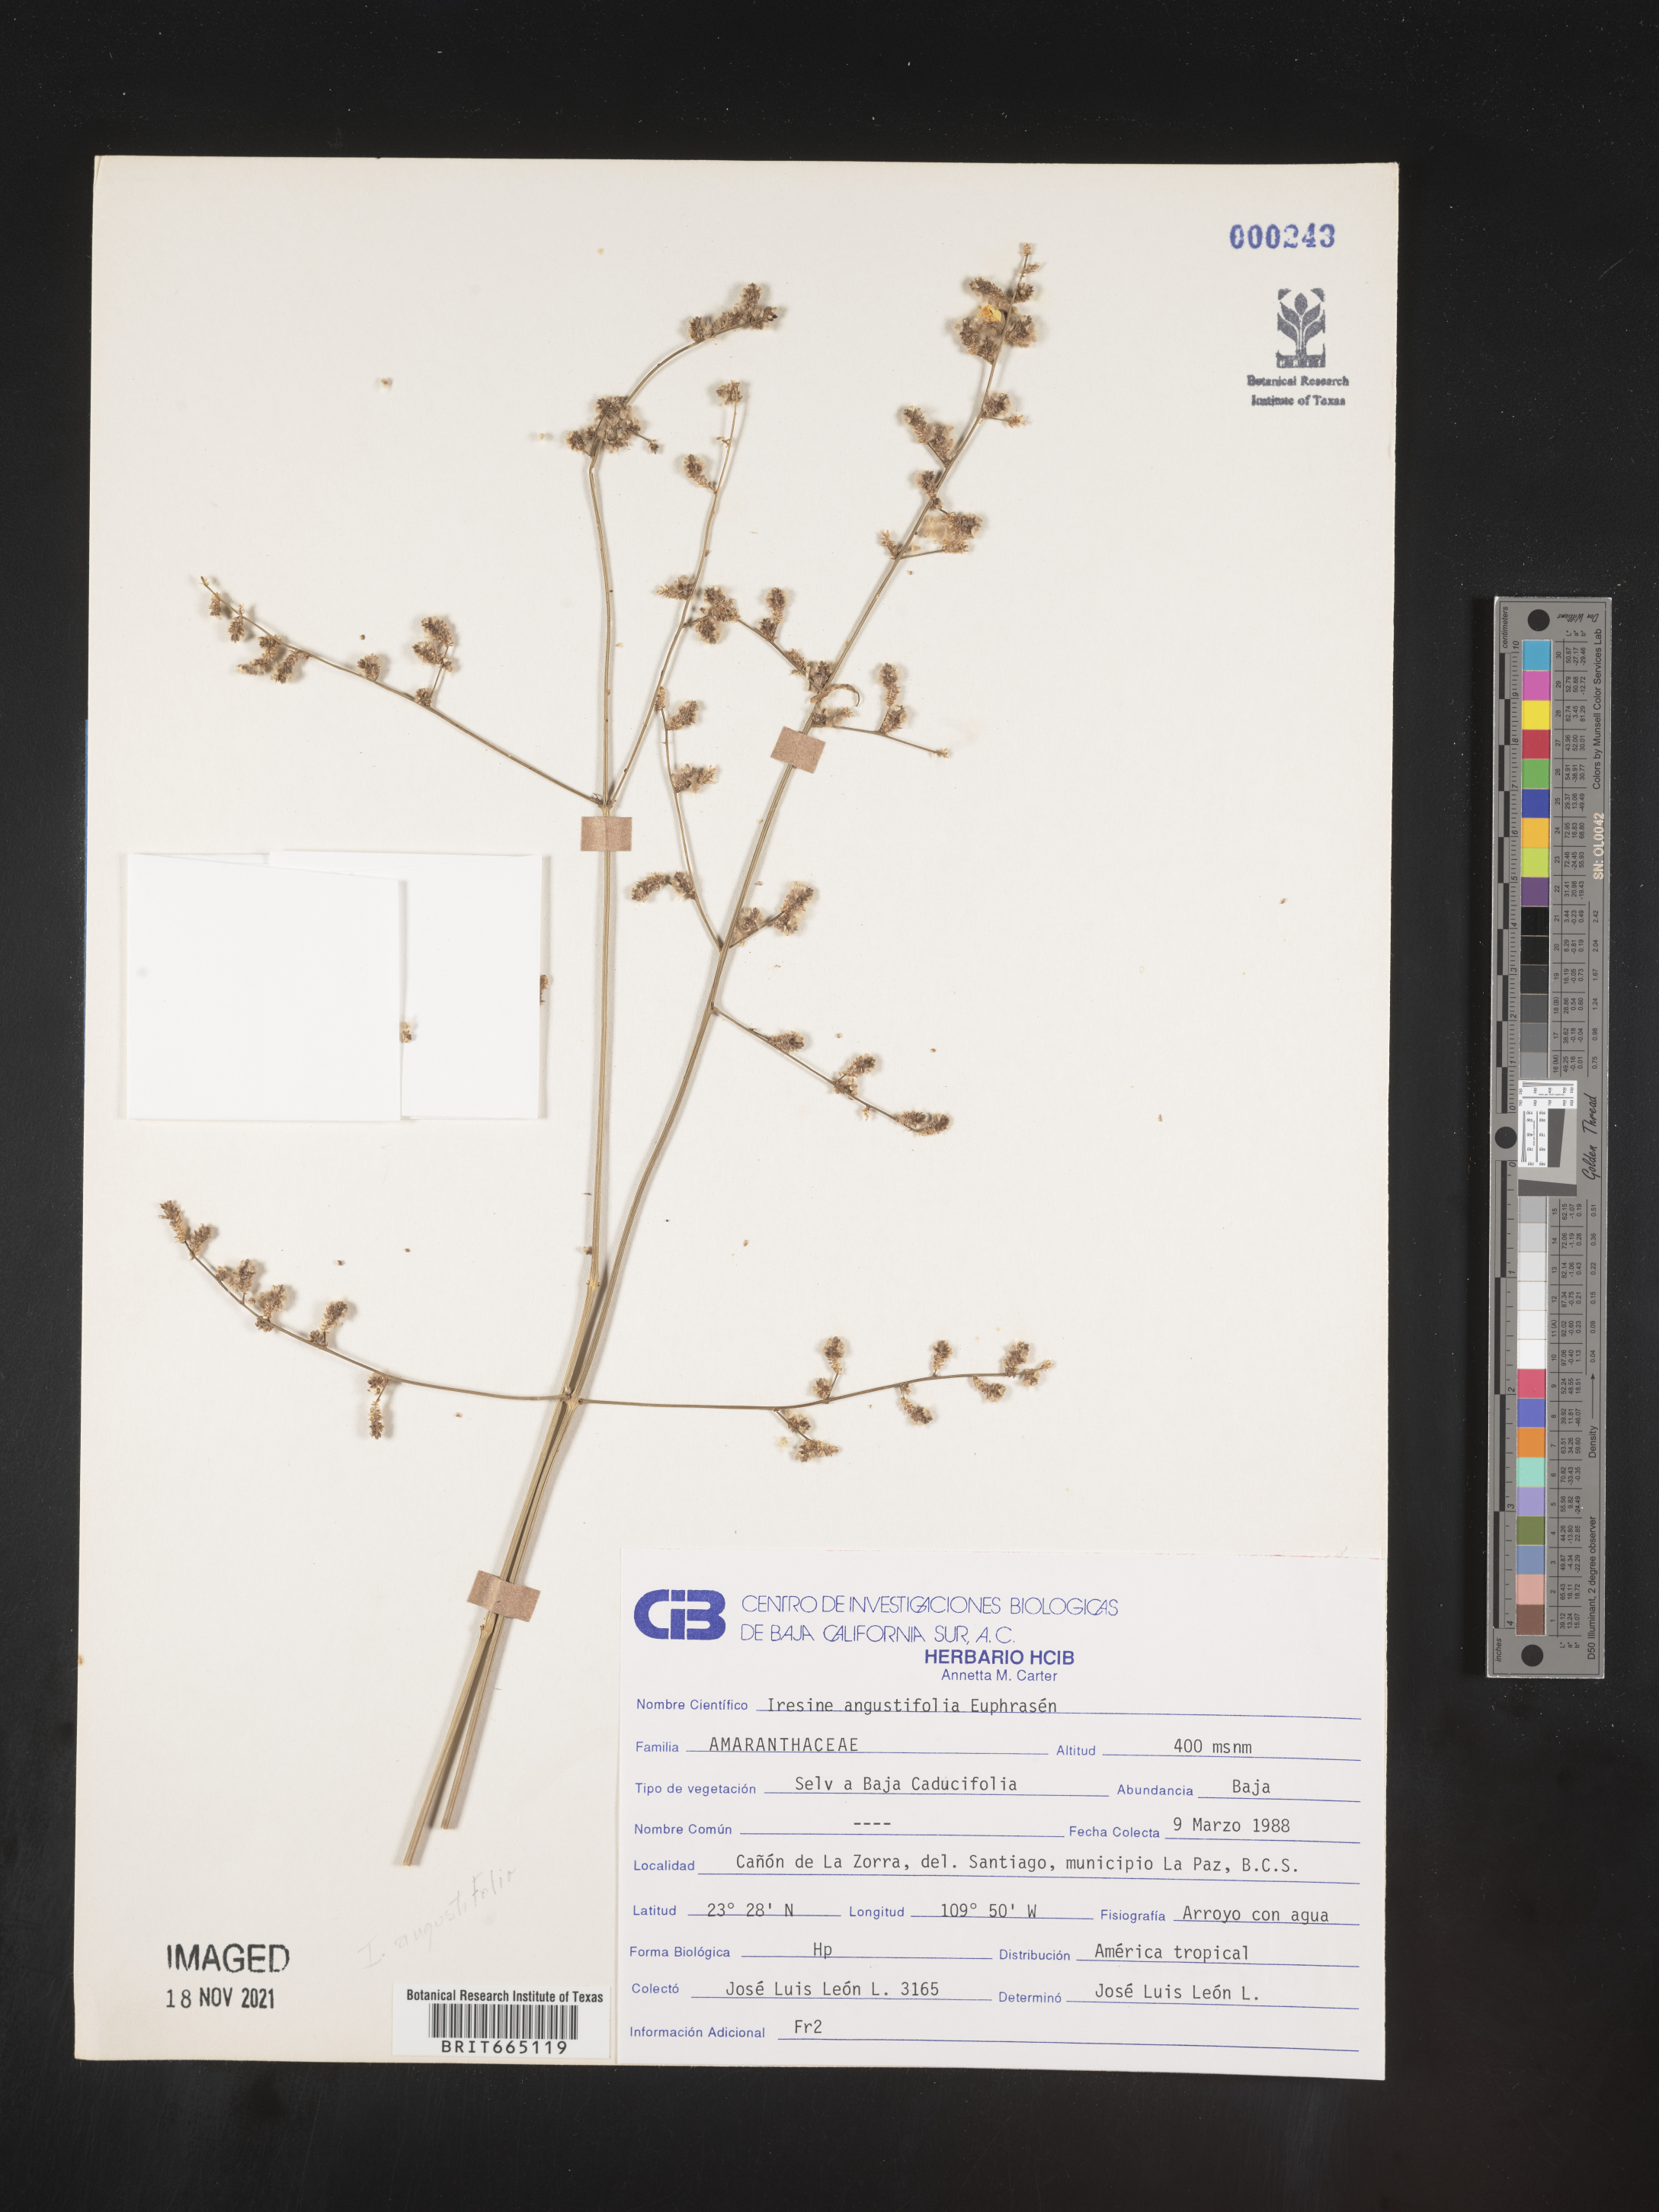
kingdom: Plantae
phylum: Tracheophyta
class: Magnoliopsida
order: Caryophyllales
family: Amaranthaceae
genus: Iresine
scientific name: Iresine
